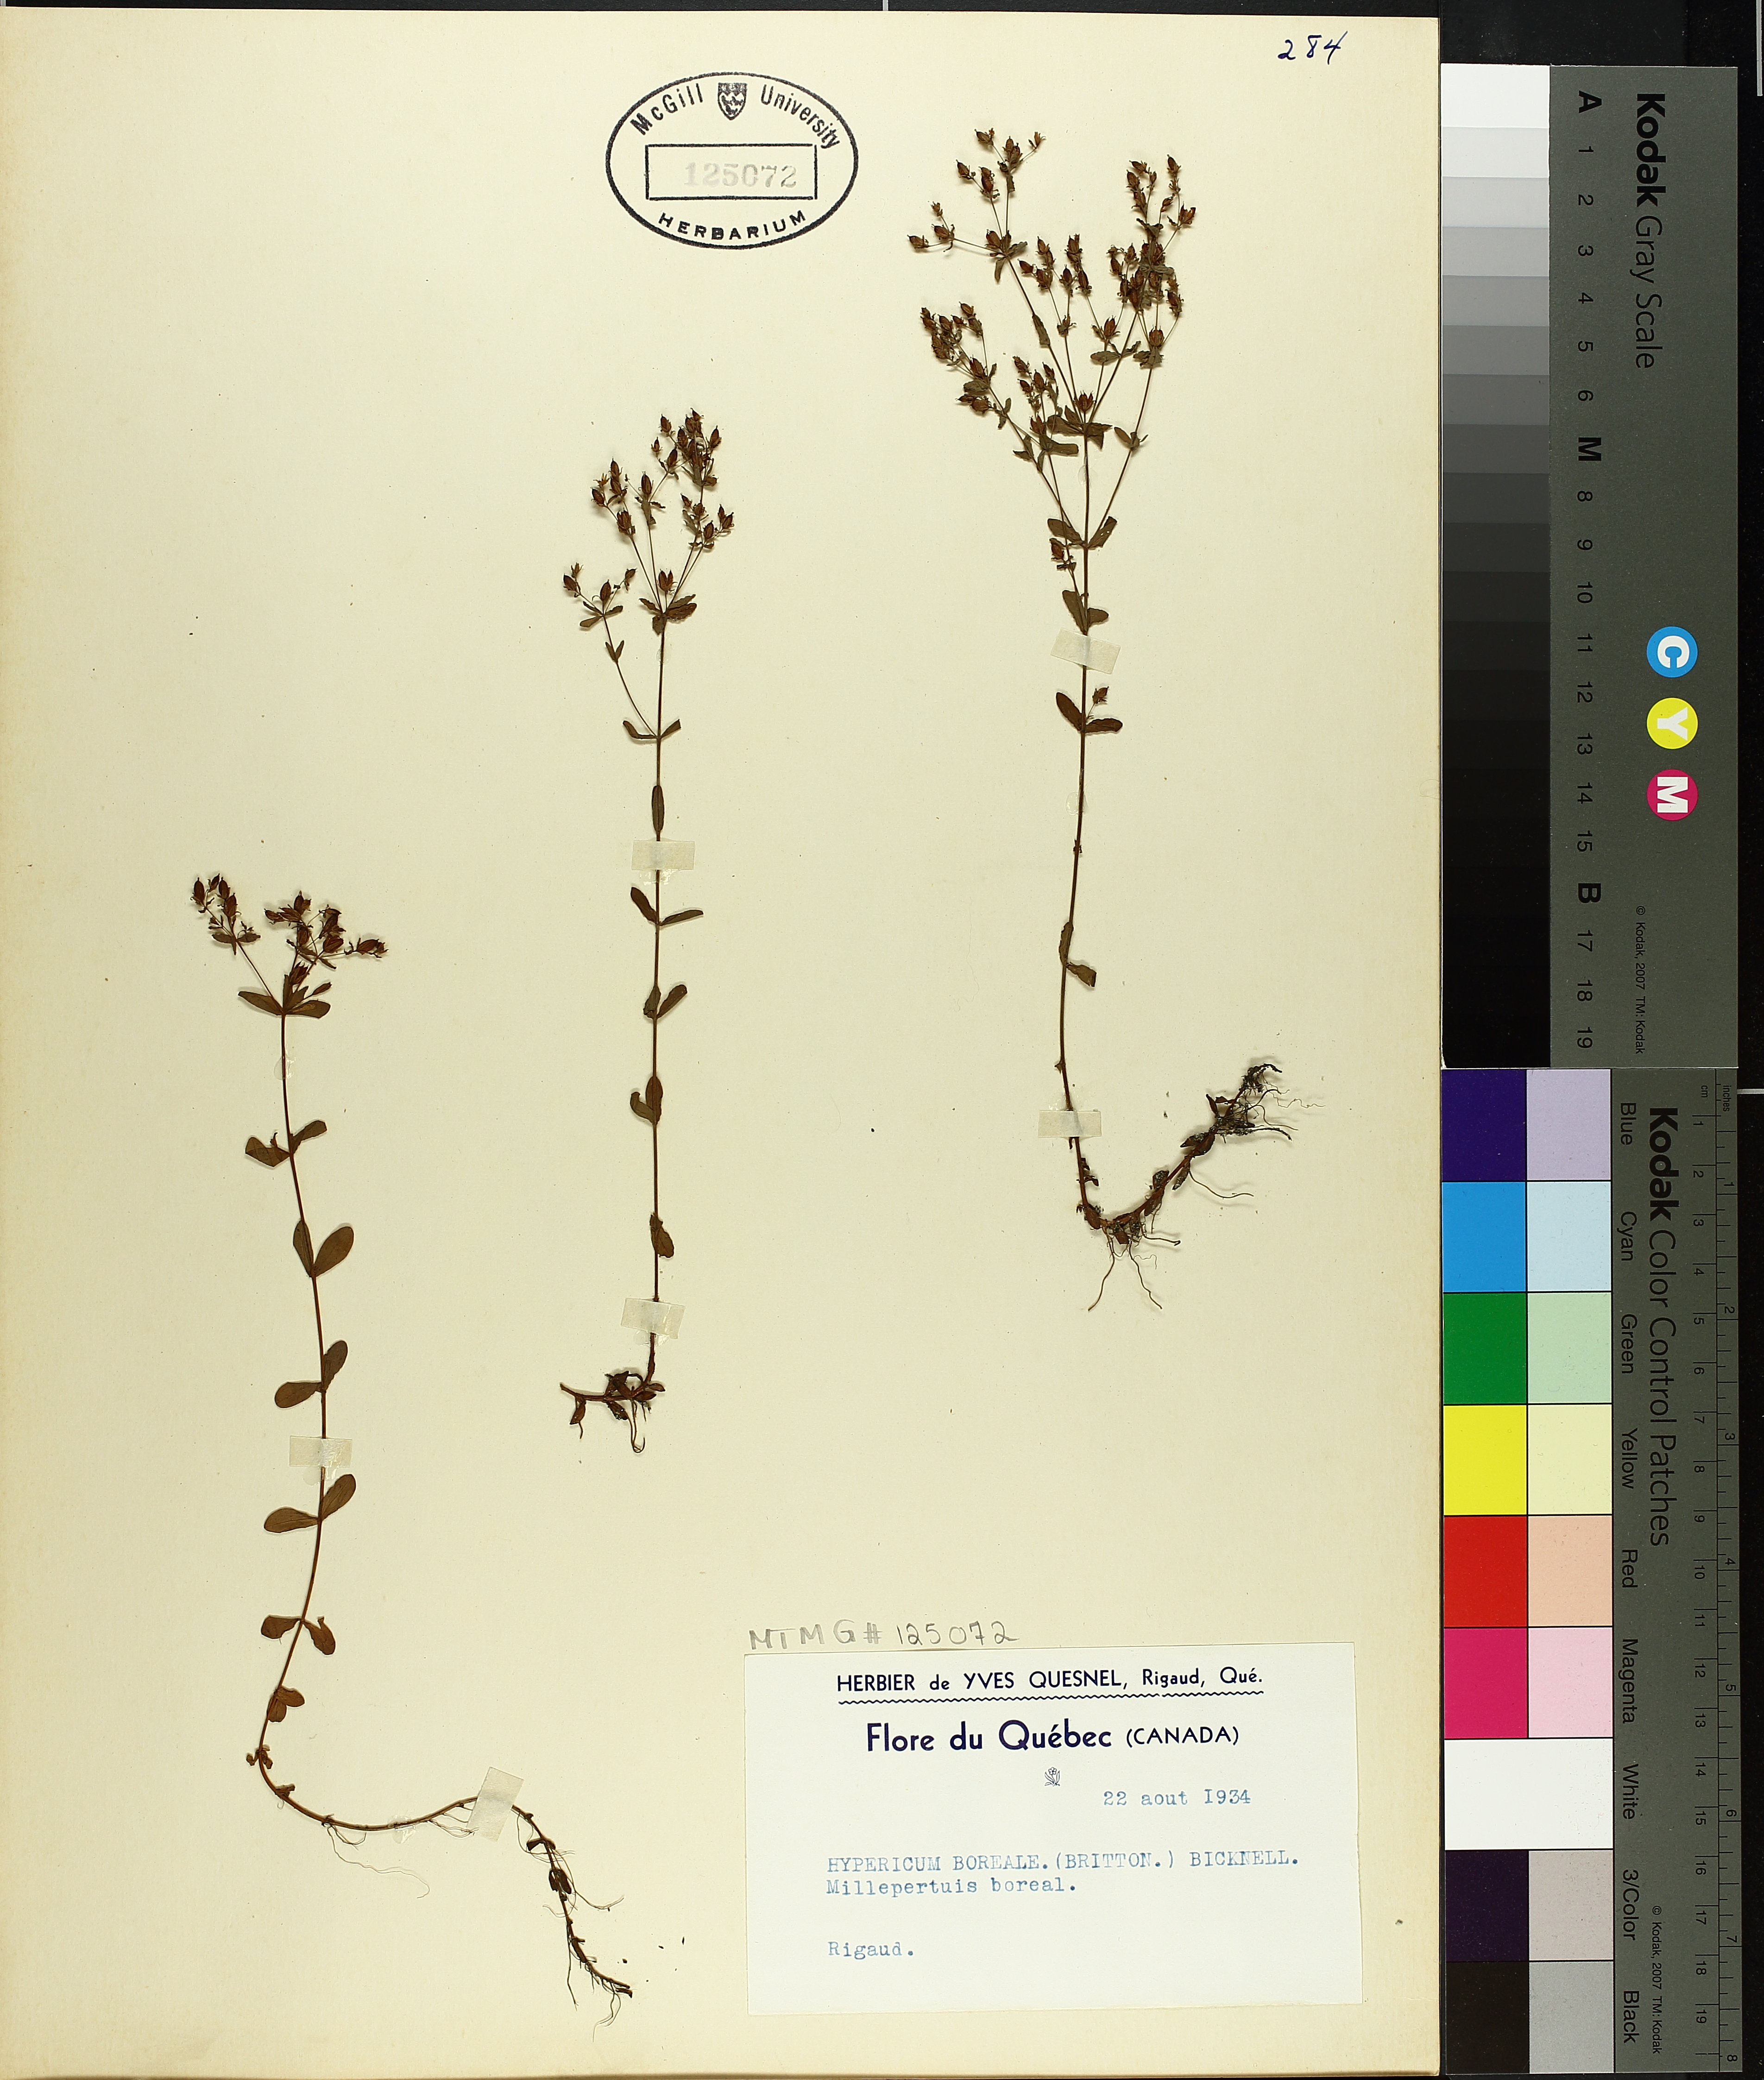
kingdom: Plantae
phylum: Tracheophyta
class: Magnoliopsida
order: Malpighiales
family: Hypericaceae
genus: Hypericum
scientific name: Hypericum boreale
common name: Northern bog st. john's-wort
